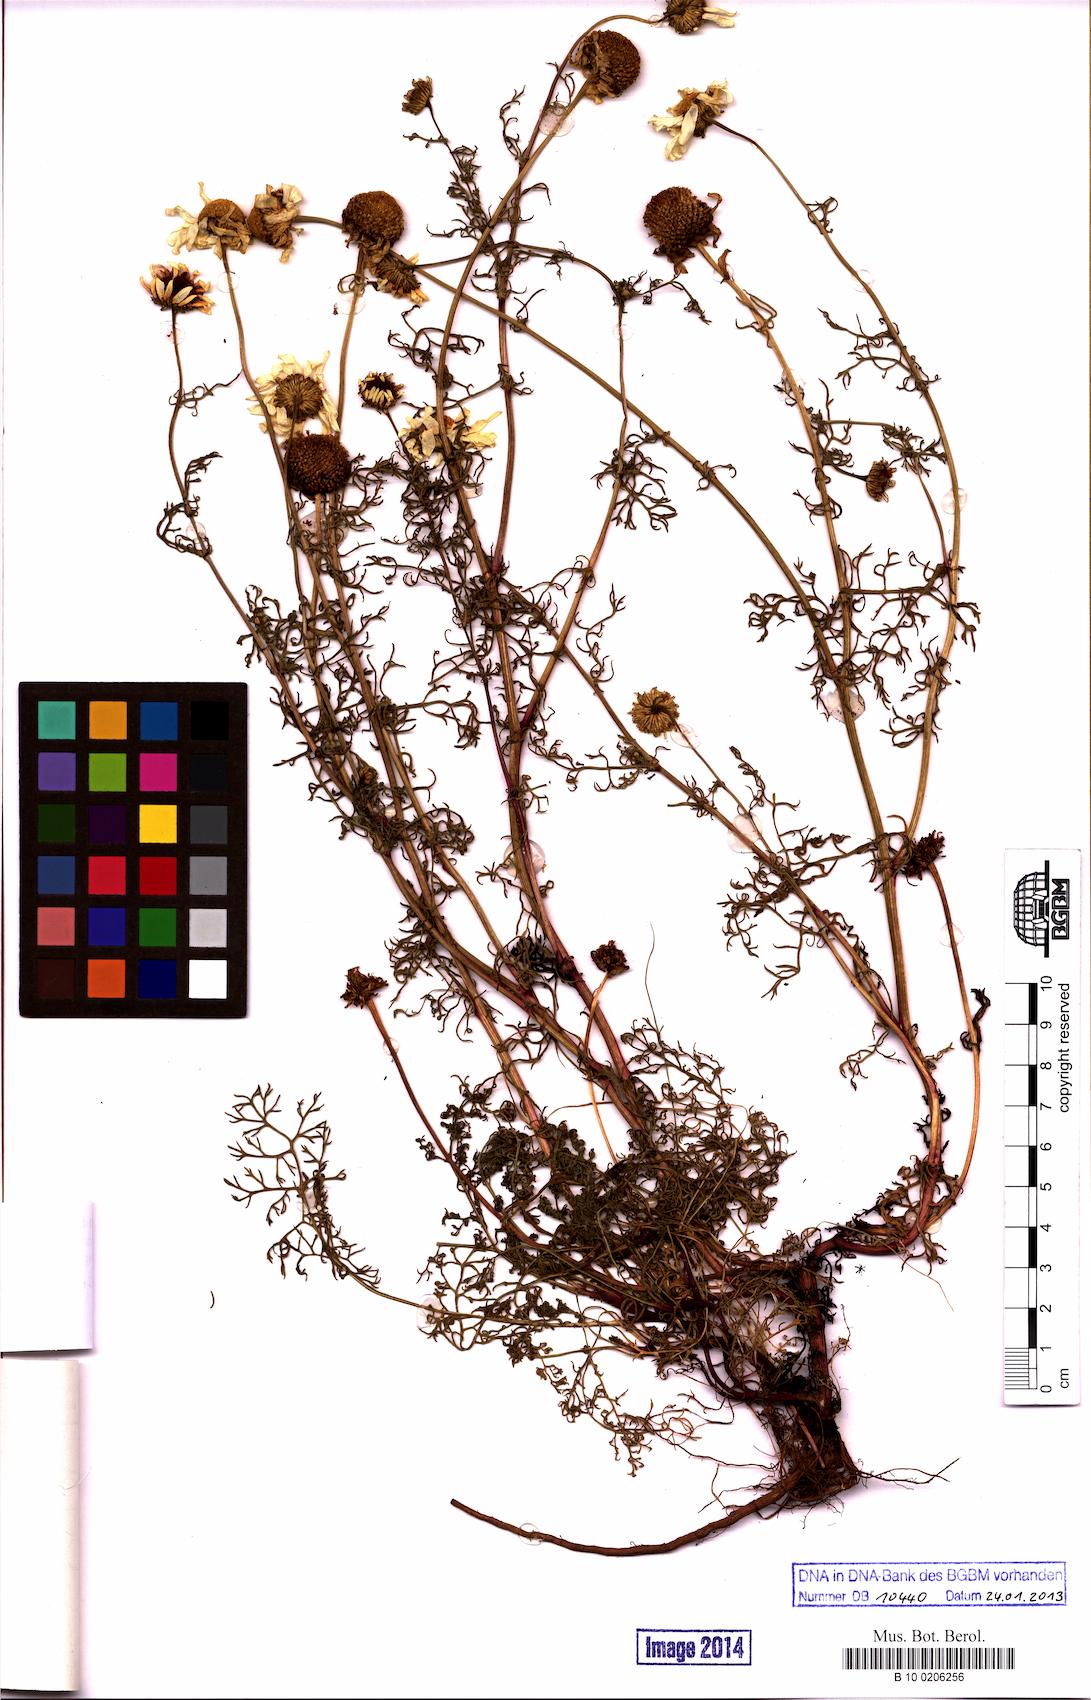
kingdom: Plantae
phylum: Tracheophyta
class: Magnoliopsida
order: Asterales
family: Asteraceae
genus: Tripleurospermum
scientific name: Tripleurospermum maritimum
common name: Sea mayweed
